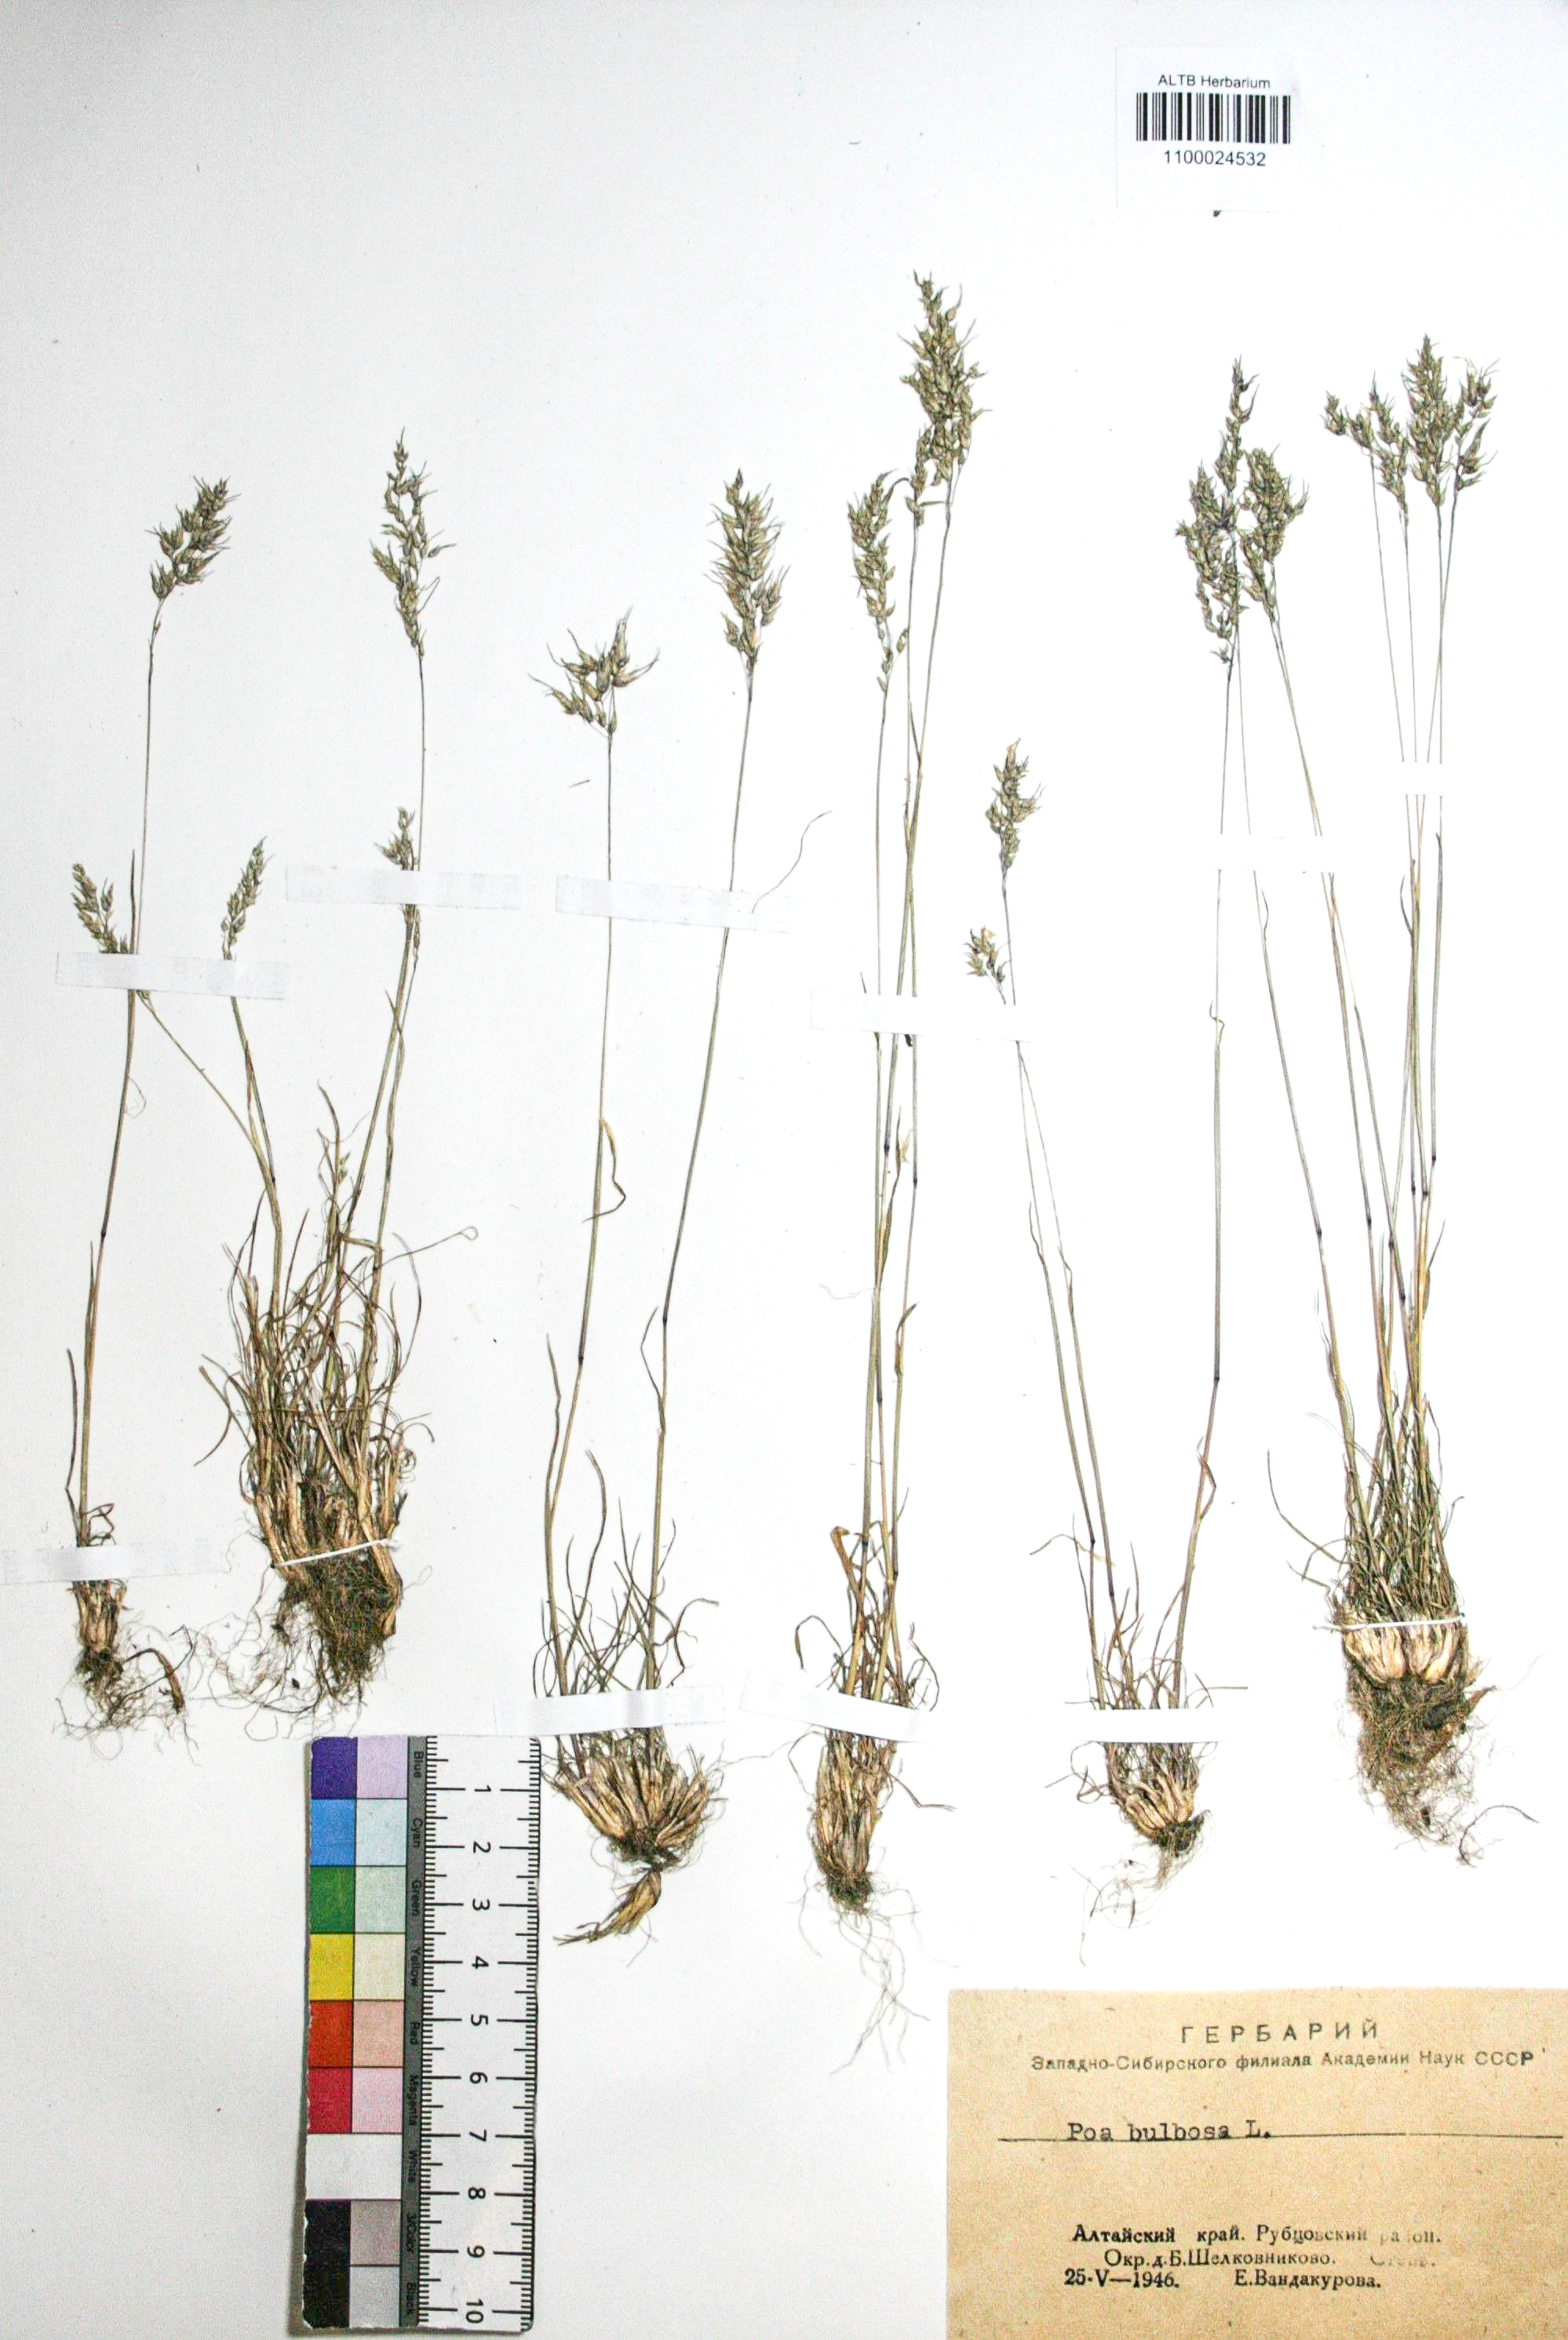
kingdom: Plantae
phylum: Tracheophyta
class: Liliopsida
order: Poales
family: Poaceae
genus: Poa
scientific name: Poa bulbosa
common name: Bulbous bluegrass
